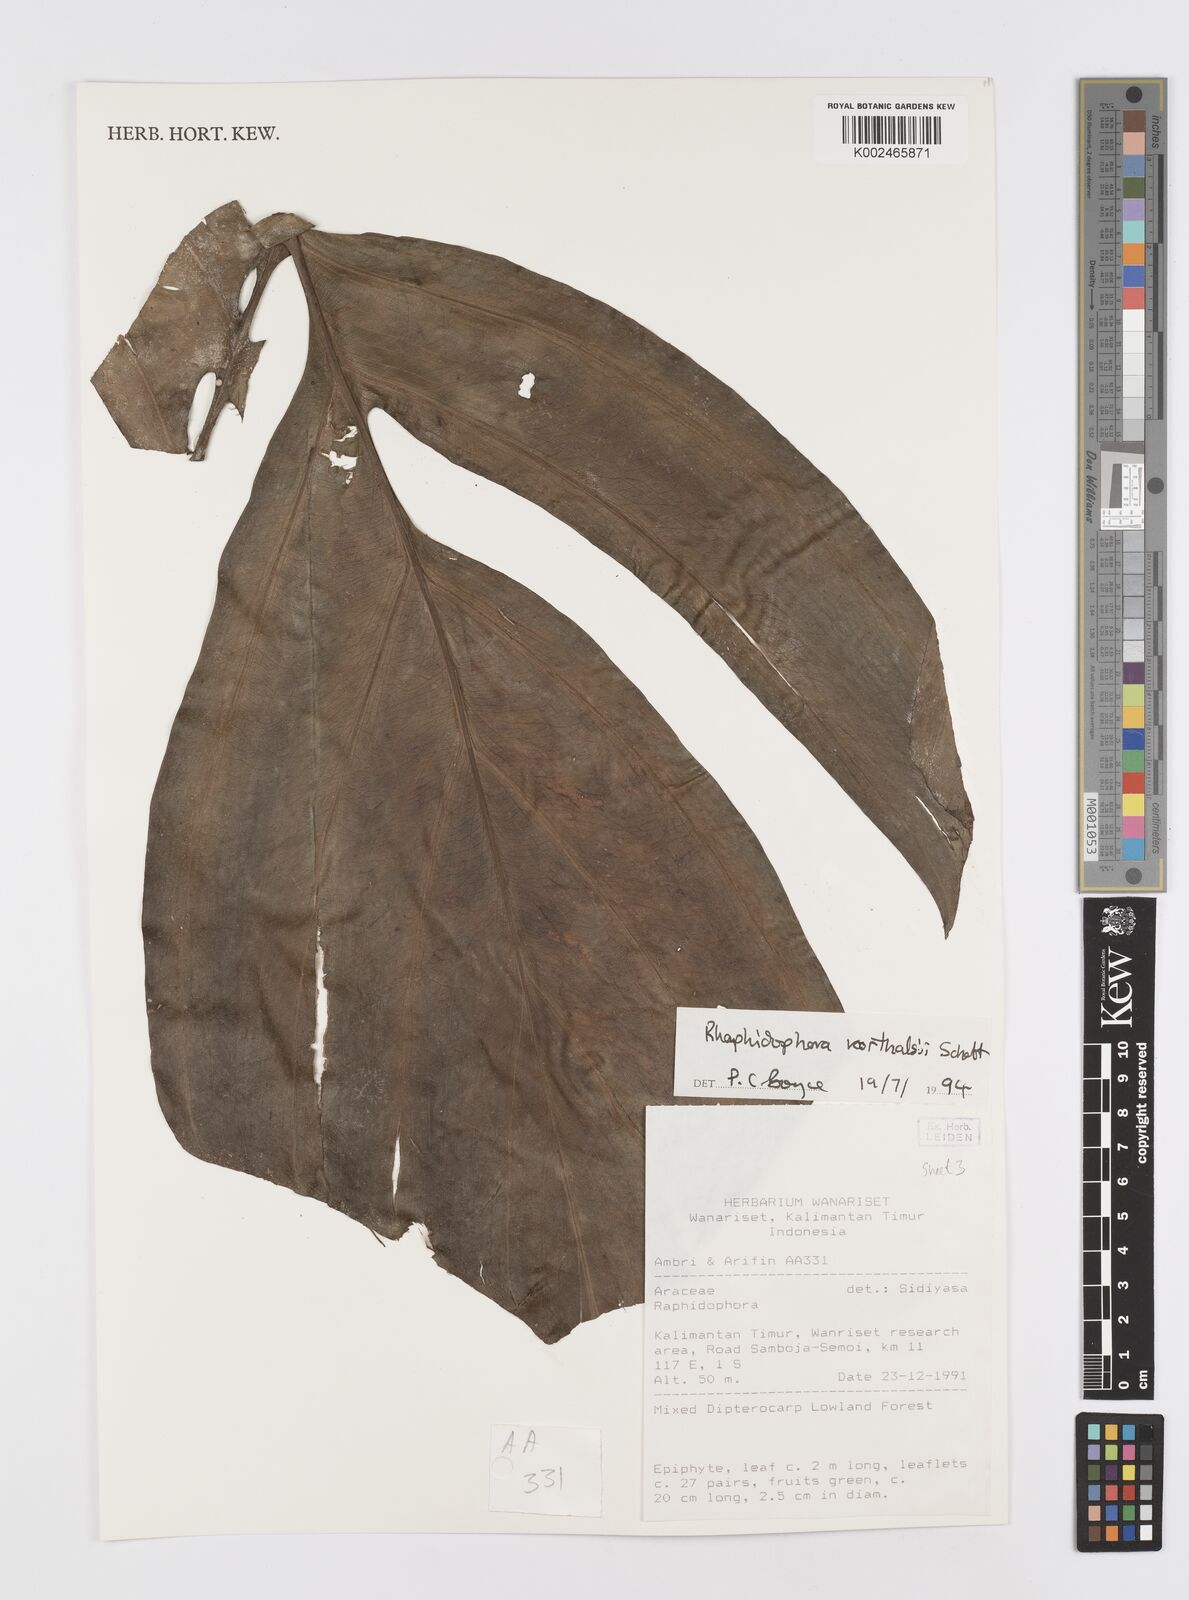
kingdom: Plantae
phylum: Tracheophyta
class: Liliopsida
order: Alismatales
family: Araceae
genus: Rhaphidophora
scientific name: Rhaphidophora korthalsii
